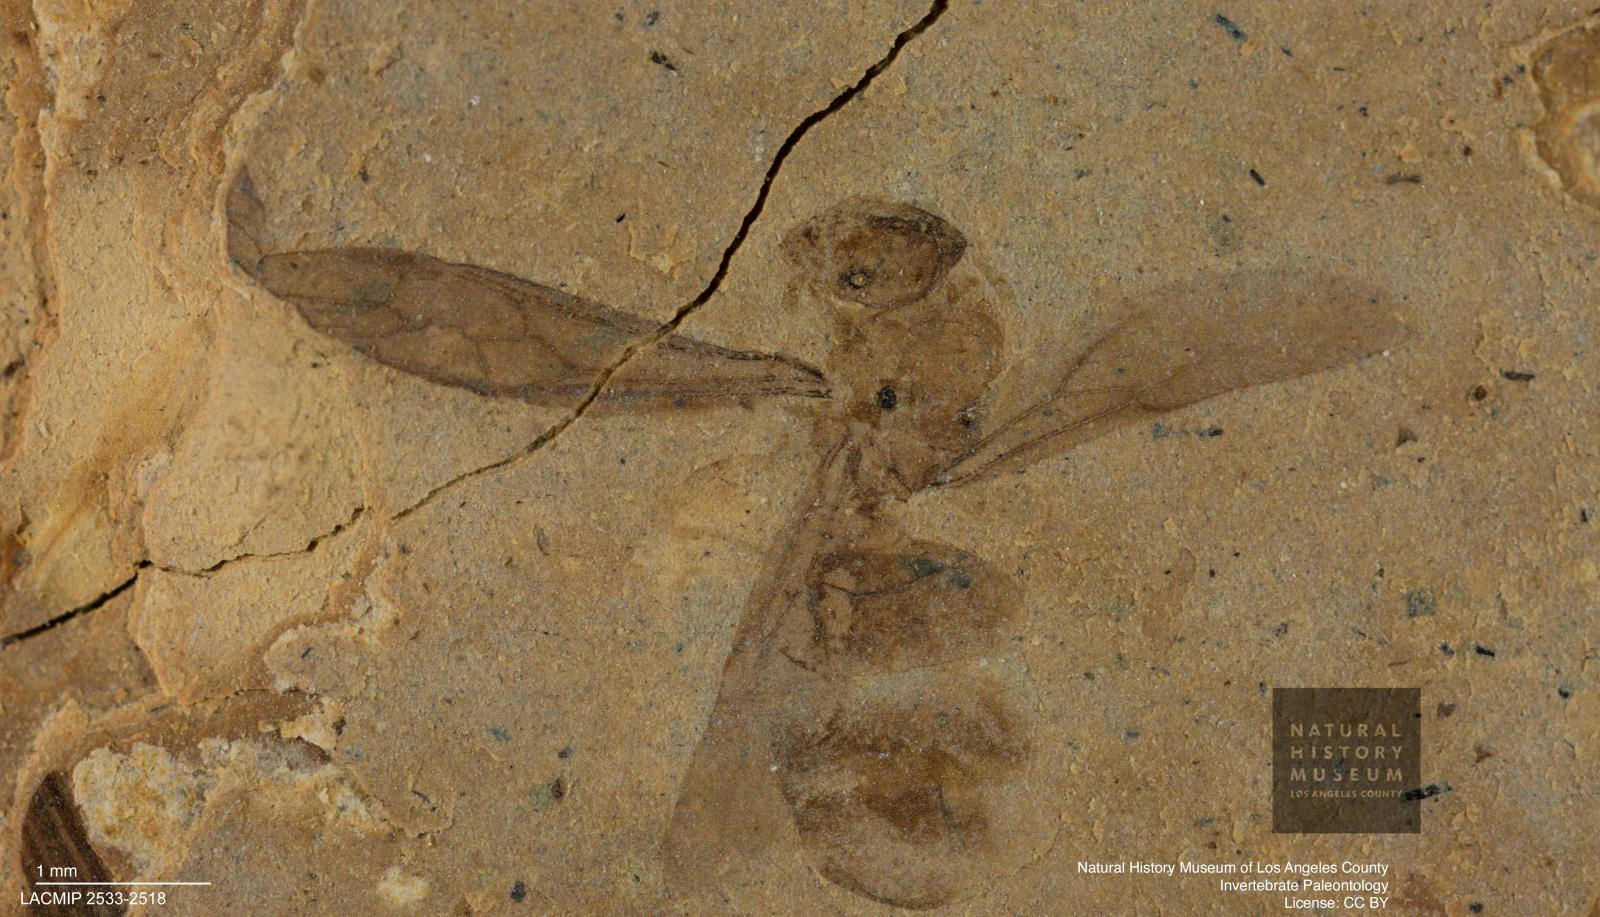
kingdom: Animalia
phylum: Arthropoda
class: Insecta
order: Hymenoptera
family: Formicidae
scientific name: Formicidae
